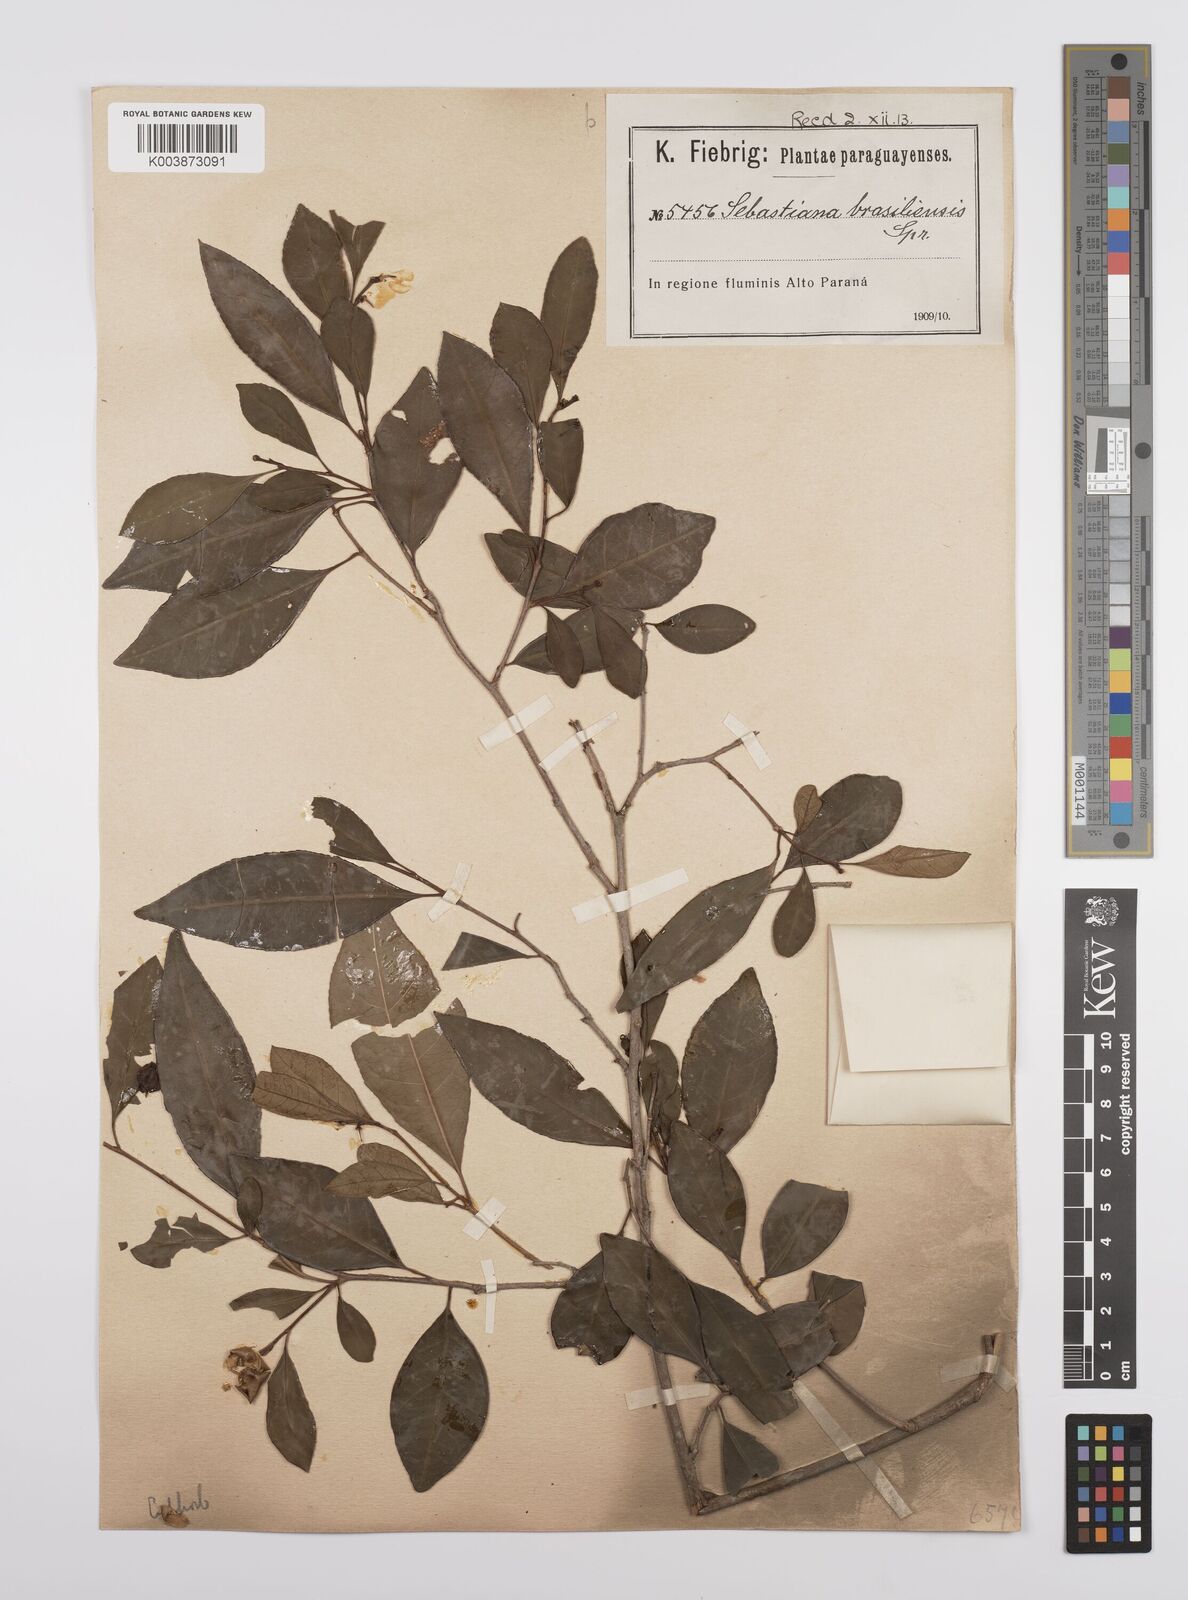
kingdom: Plantae
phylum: Tracheophyta
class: Magnoliopsida
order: Malpighiales
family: Euphorbiaceae
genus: Sebastiania
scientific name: Sebastiania ramosissima
